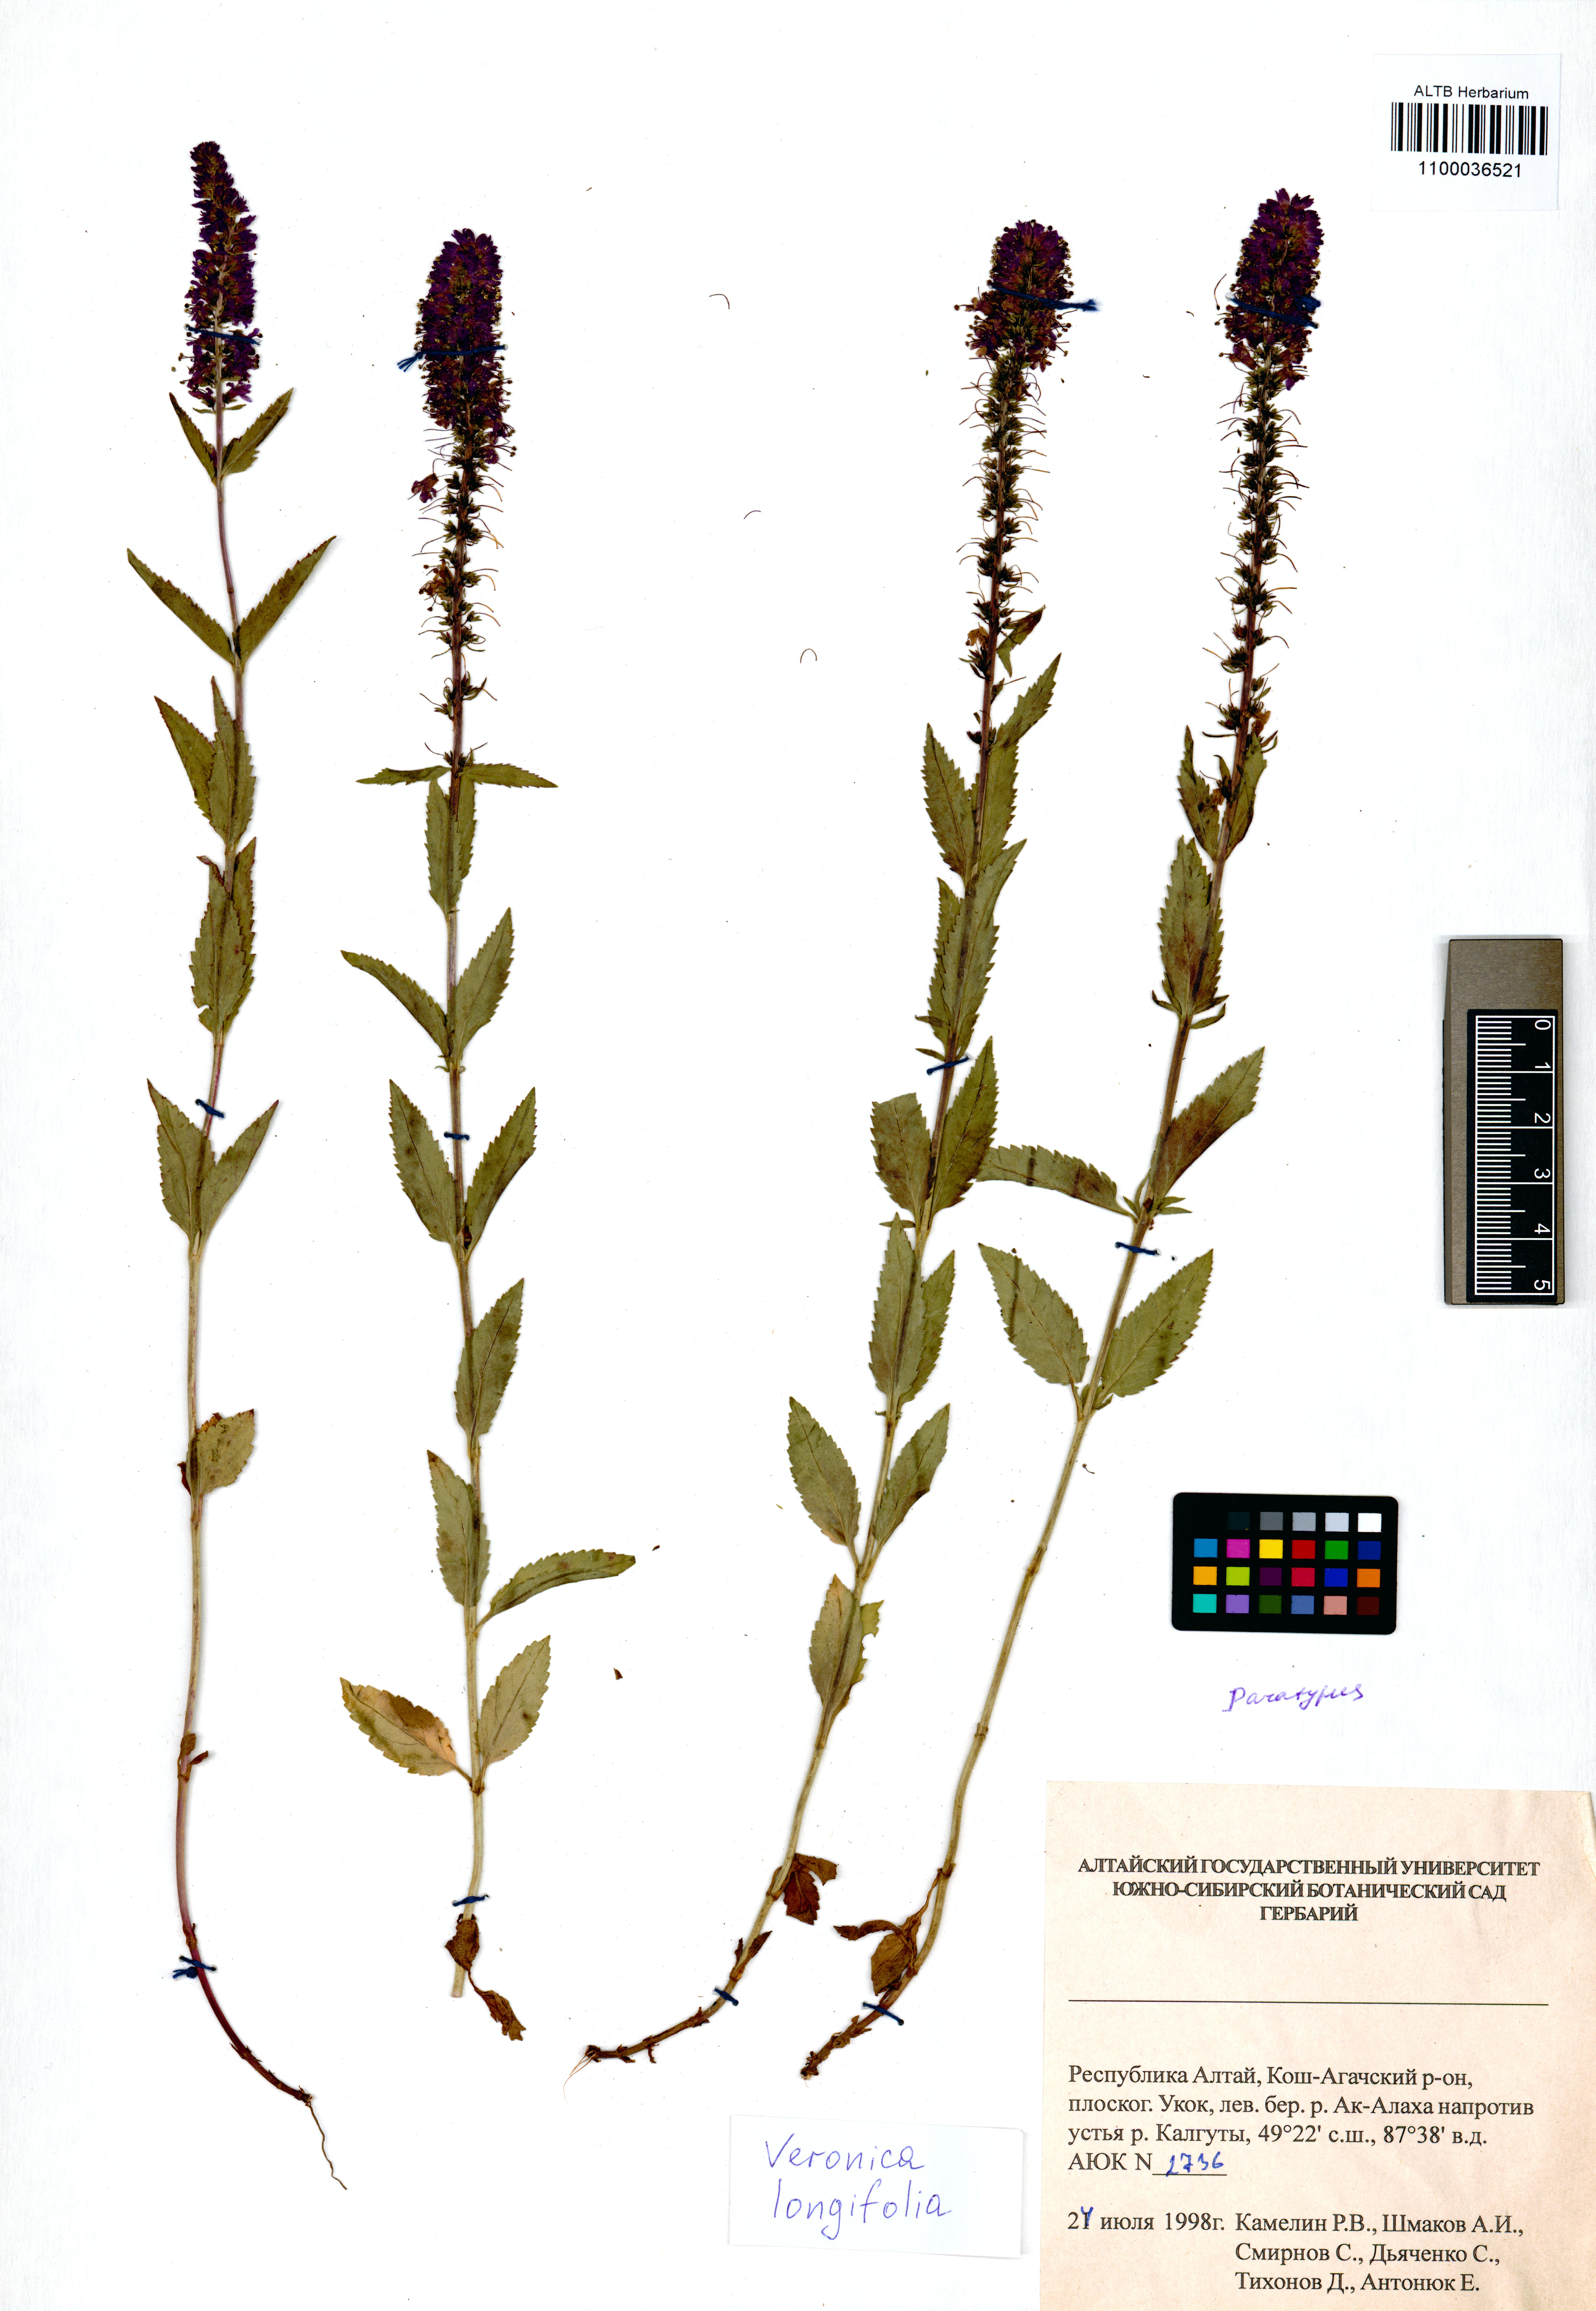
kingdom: Plantae
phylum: Tracheophyta
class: Magnoliopsida
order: Lamiales
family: Plantaginaceae
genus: Veronica
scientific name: Veronica longifolia
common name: Garden speedwell
